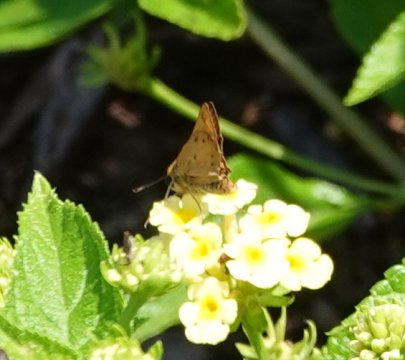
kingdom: Animalia
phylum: Arthropoda
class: Insecta
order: Lepidoptera
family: Hesperiidae
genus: Polites
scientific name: Polites vibex
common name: Whirlabout
